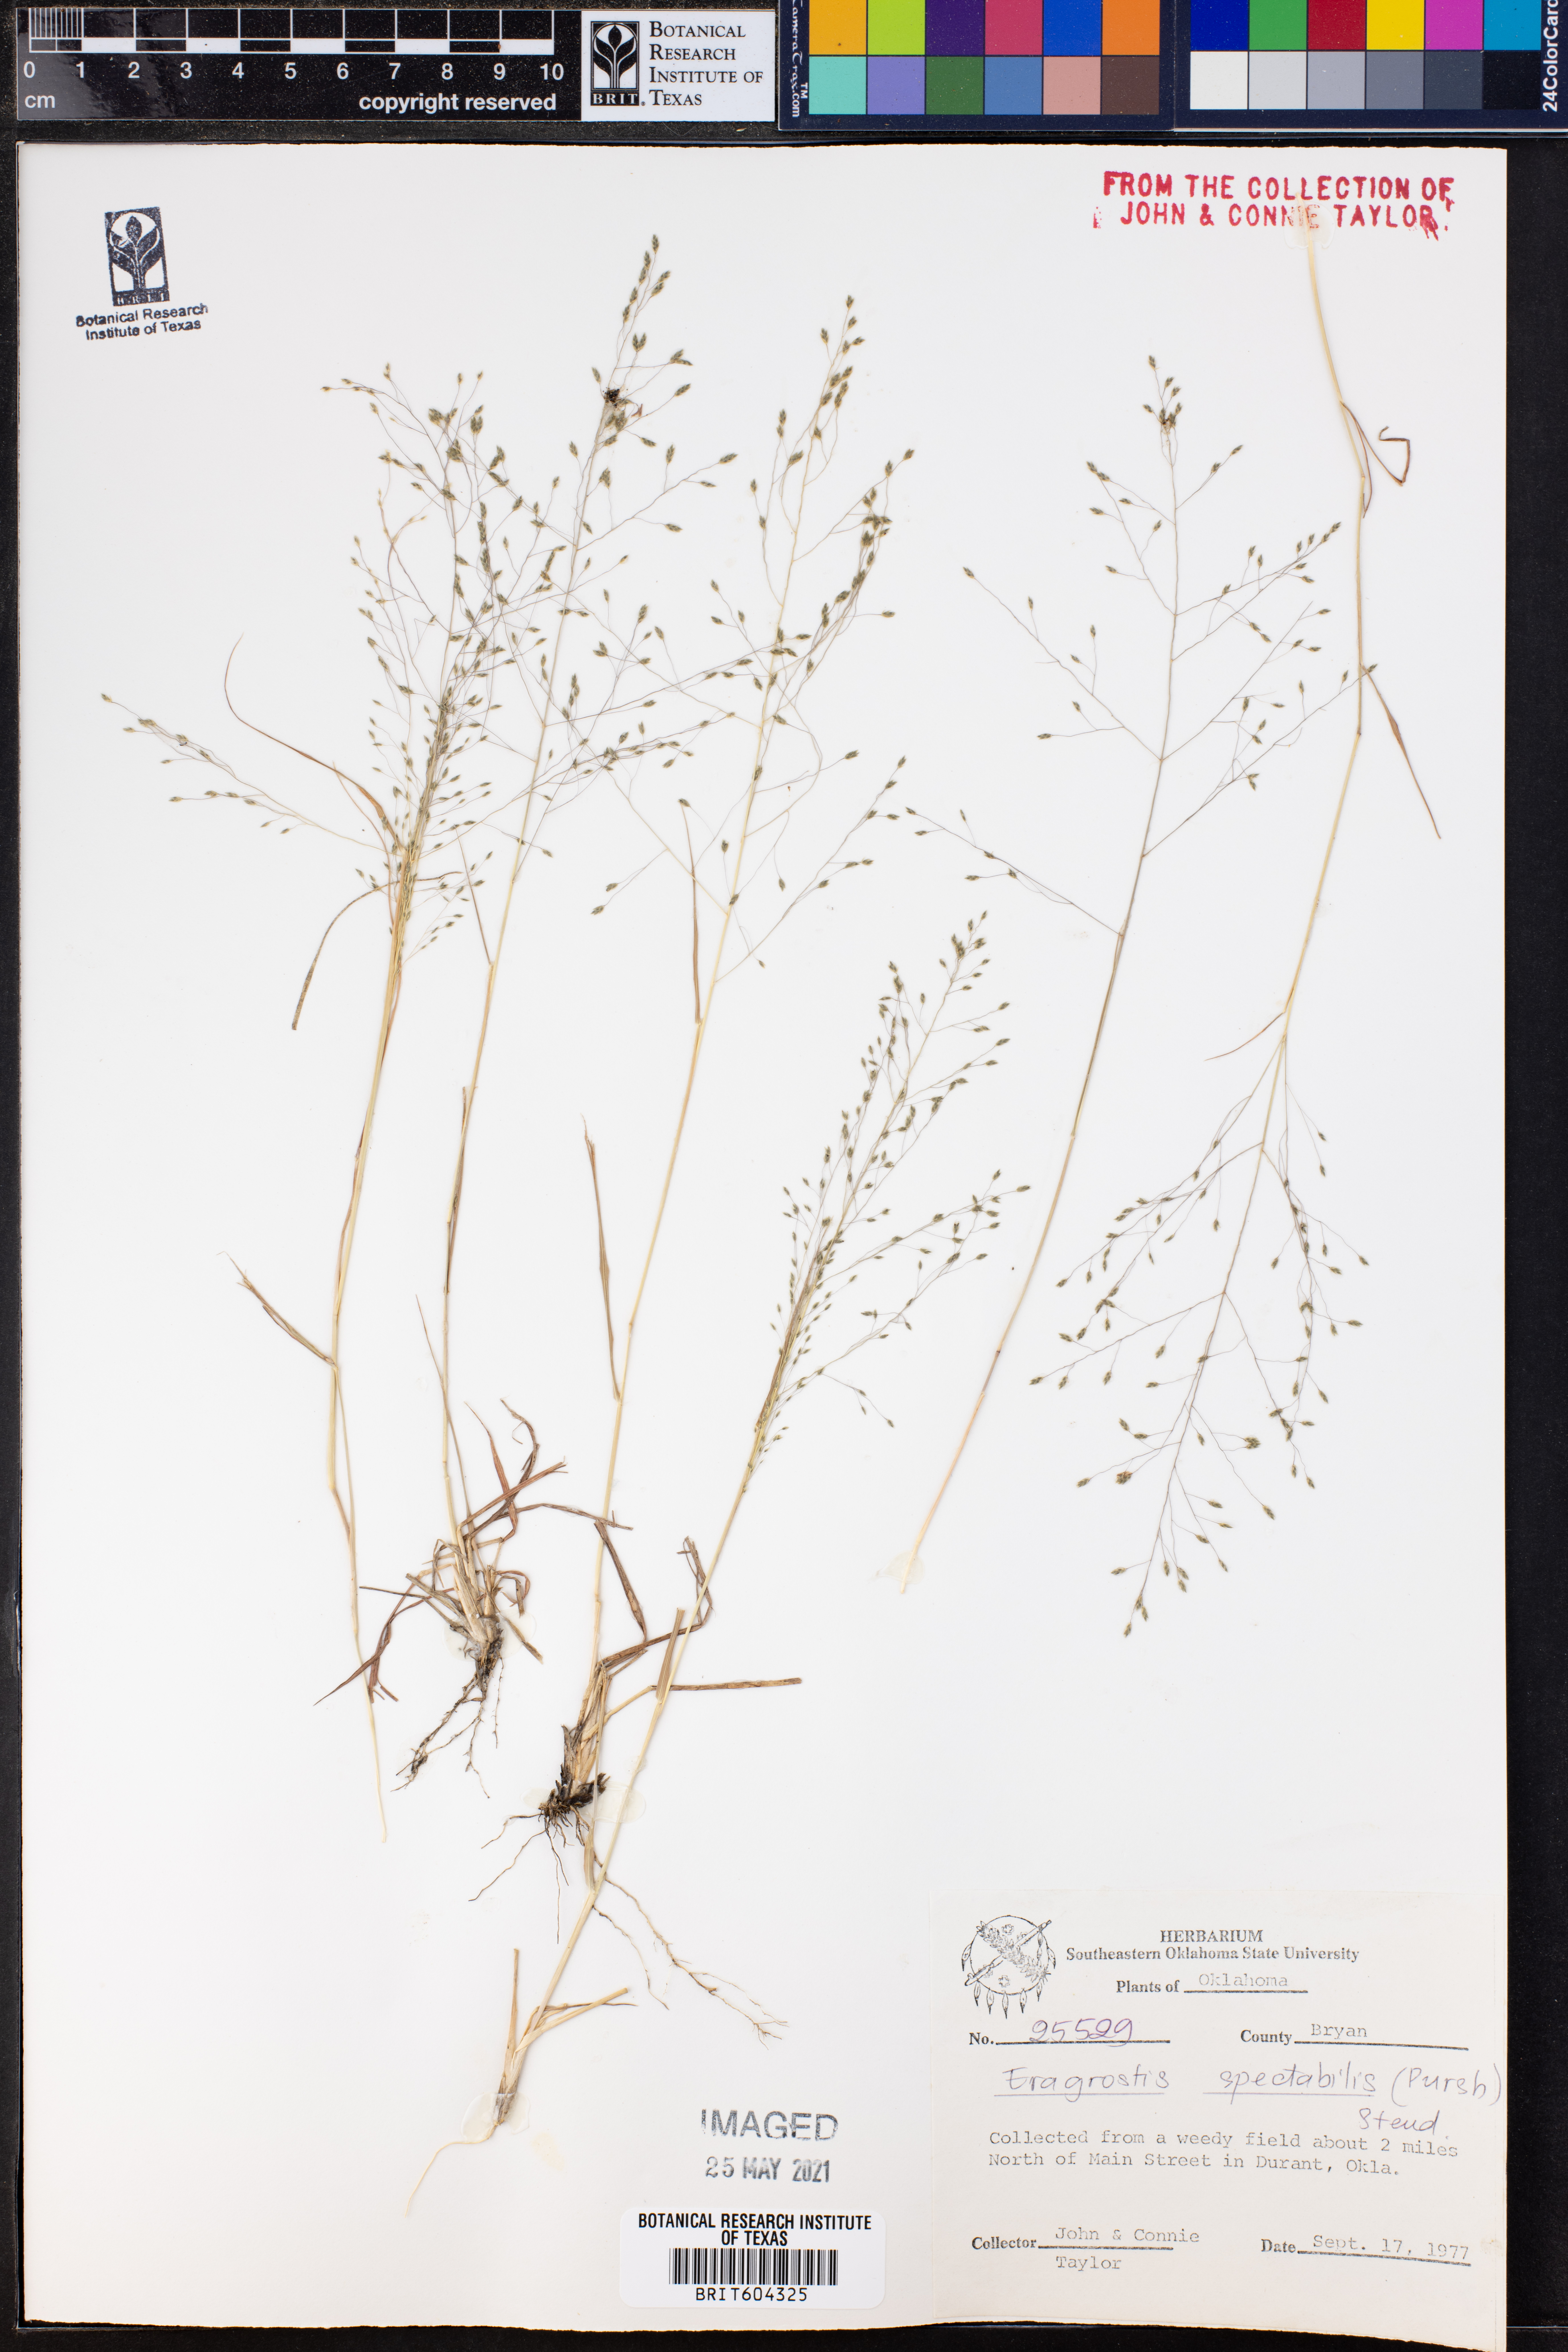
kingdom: Plantae
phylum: Tracheophyta
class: Liliopsida
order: Poales
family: Poaceae
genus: Eragrostis
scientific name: Eragrostis spectabilis
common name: Petticoat-climber
